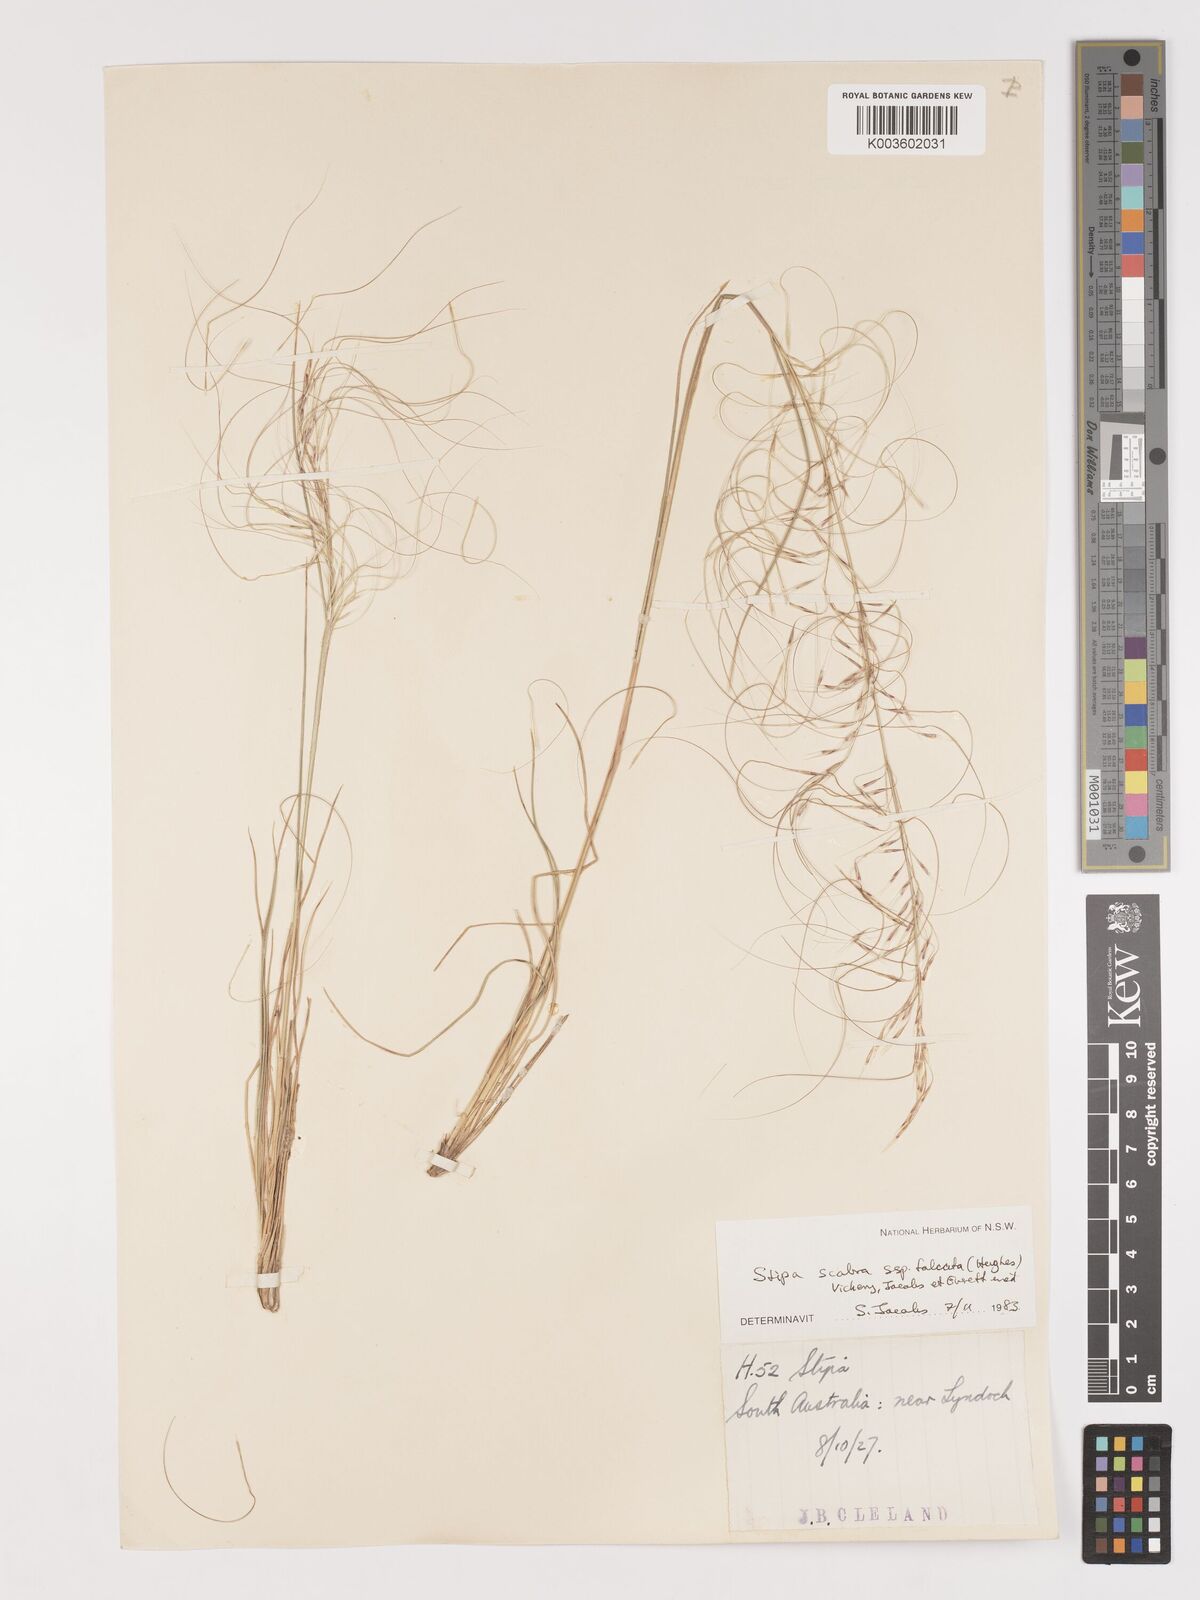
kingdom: Plantae
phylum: Tracheophyta
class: Liliopsida
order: Poales
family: Poaceae
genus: Austrostipa
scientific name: Austrostipa scabra
